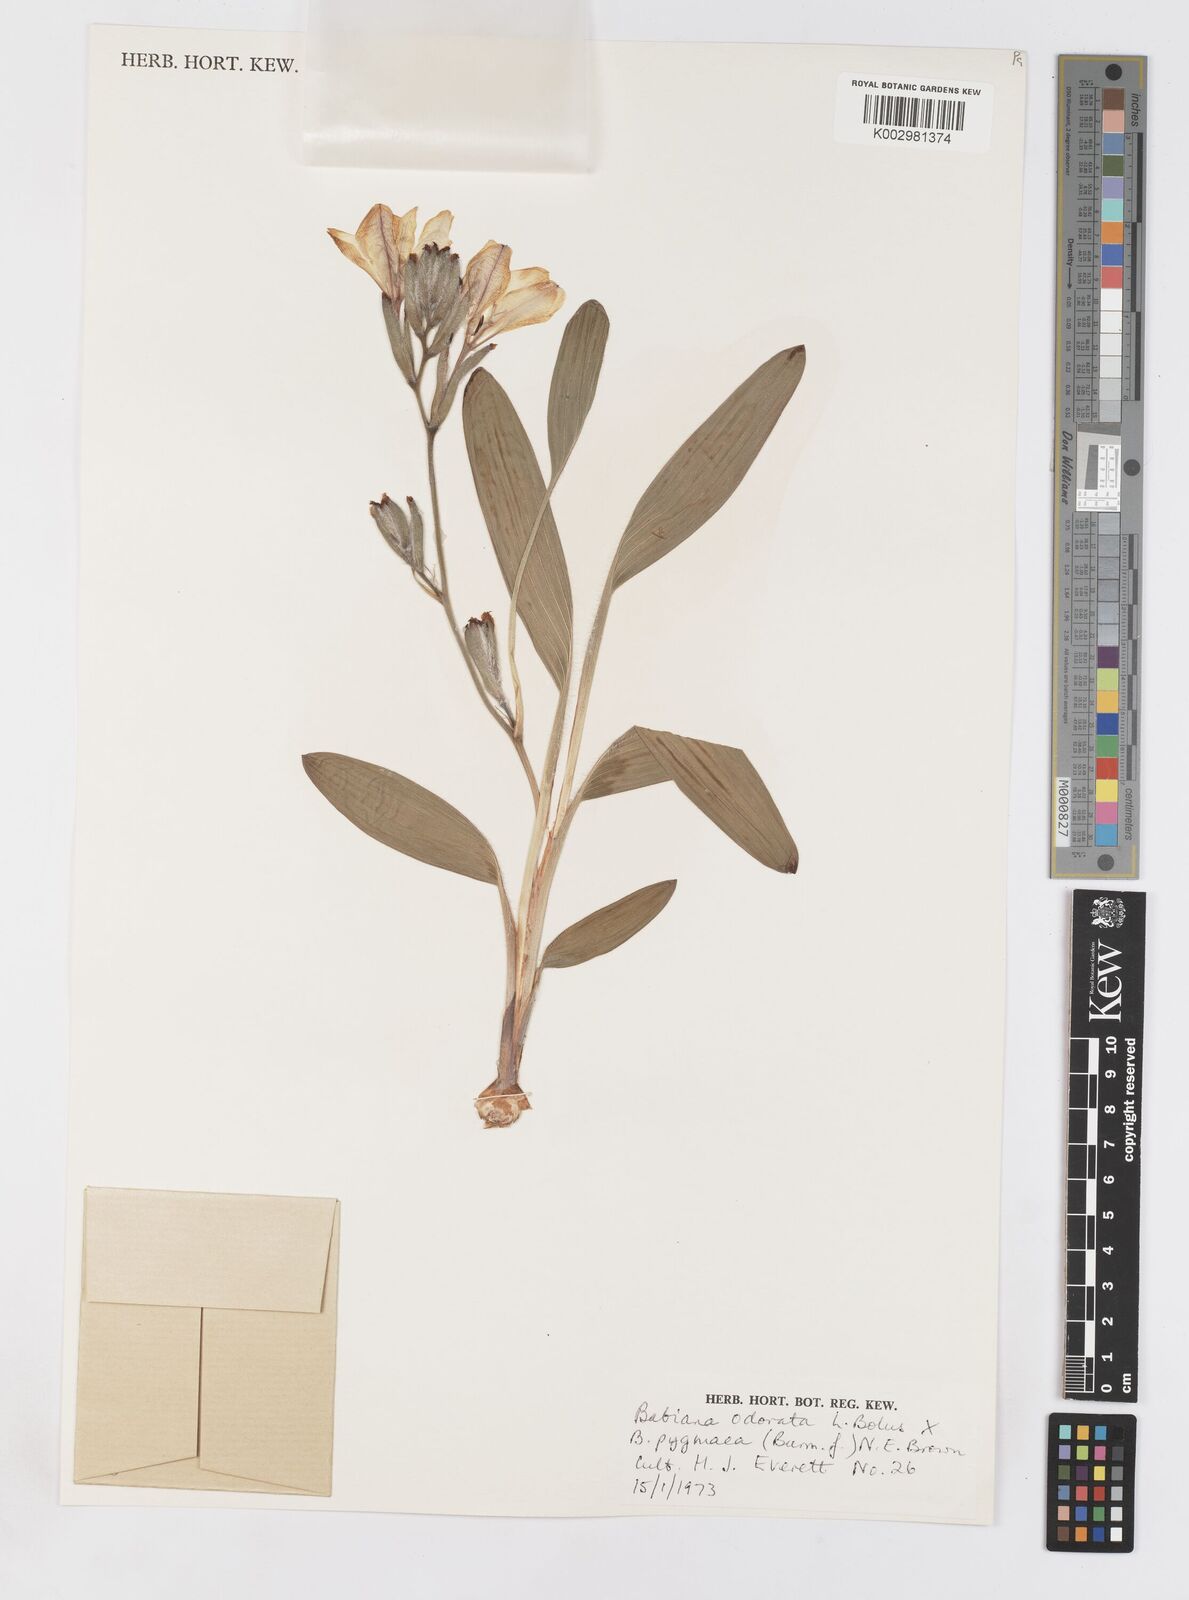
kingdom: Plantae
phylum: Tracheophyta
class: Liliopsida
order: Asparagales
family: Iridaceae
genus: Babiana
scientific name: Babiana odorata
